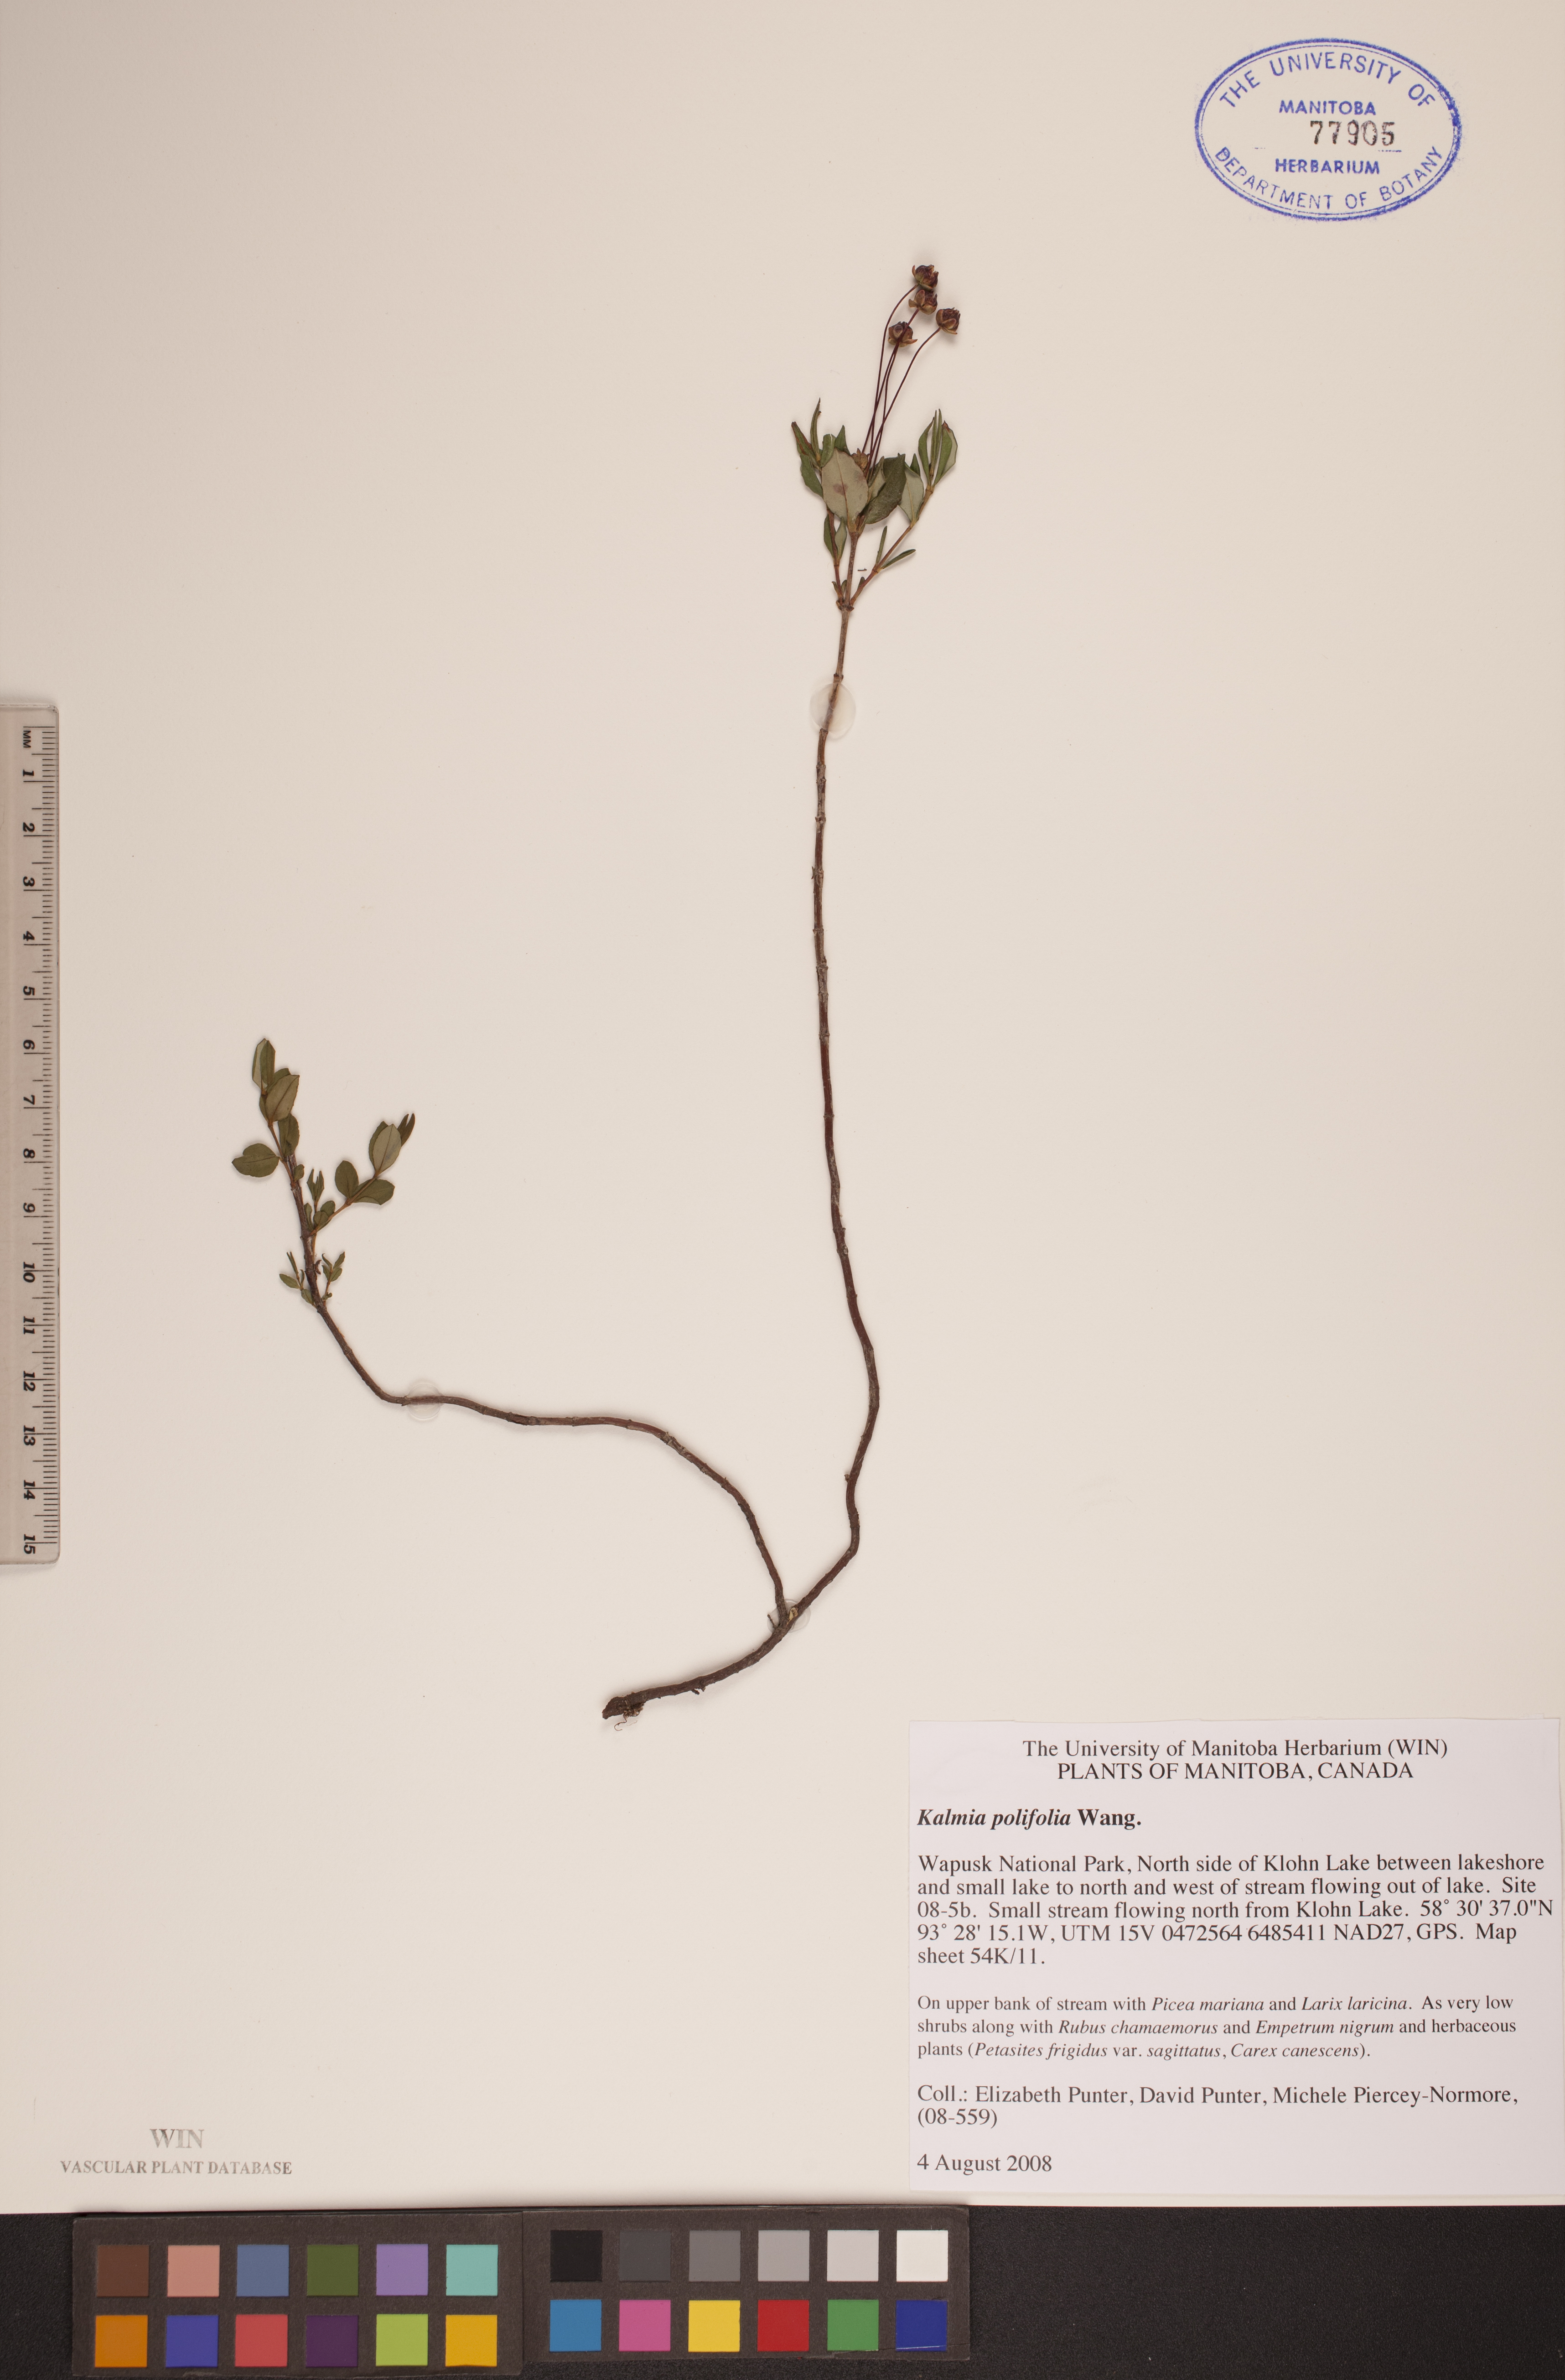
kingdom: Plantae
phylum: Tracheophyta
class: Magnoliopsida
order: Ericales
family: Ericaceae
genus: Kalmia
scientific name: Kalmia polifolia
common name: Bog-laurel
